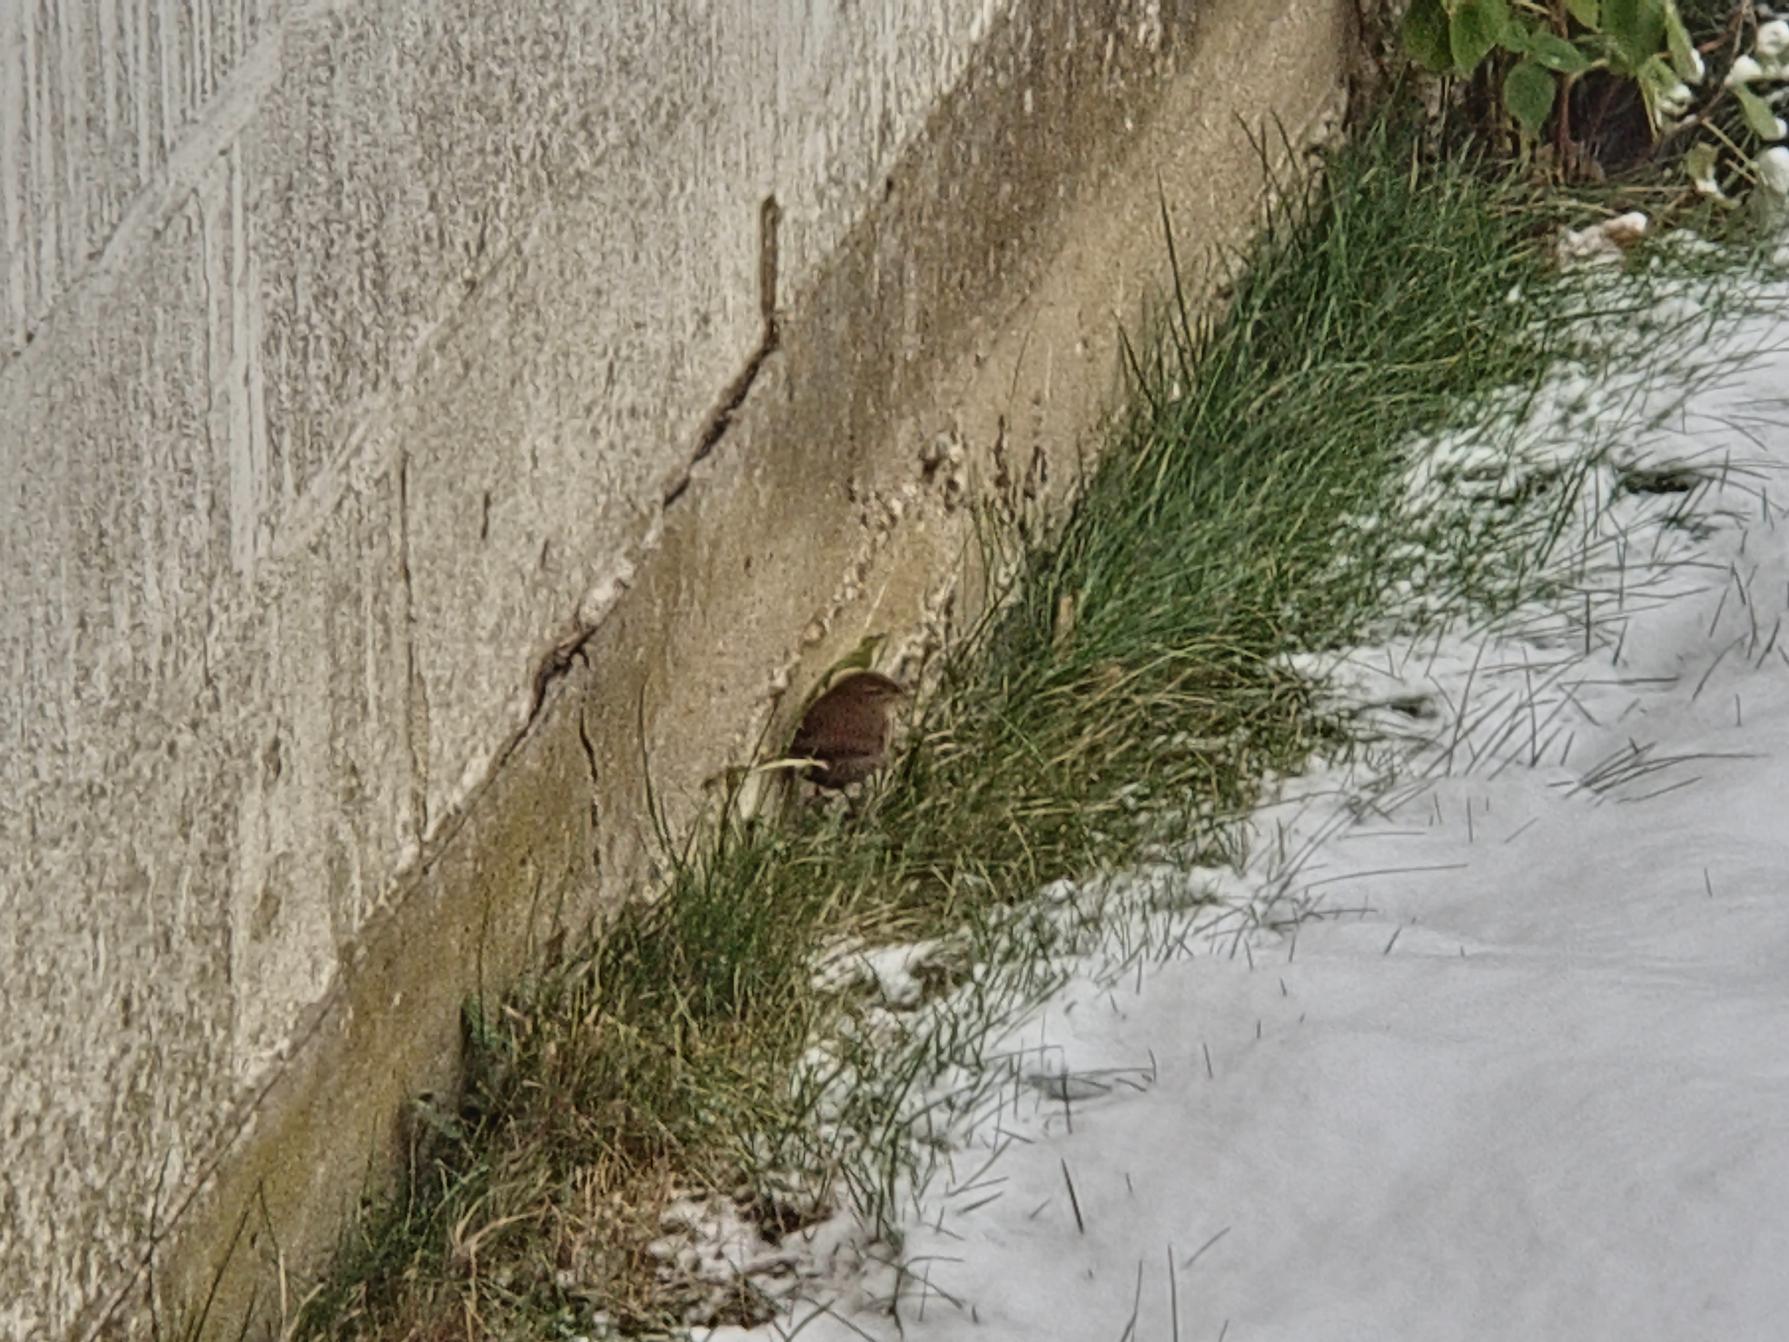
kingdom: Animalia
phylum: Chordata
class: Aves
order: Passeriformes
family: Troglodytidae
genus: Troglodytes
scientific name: Troglodytes troglodytes
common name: Gærdesmutte
